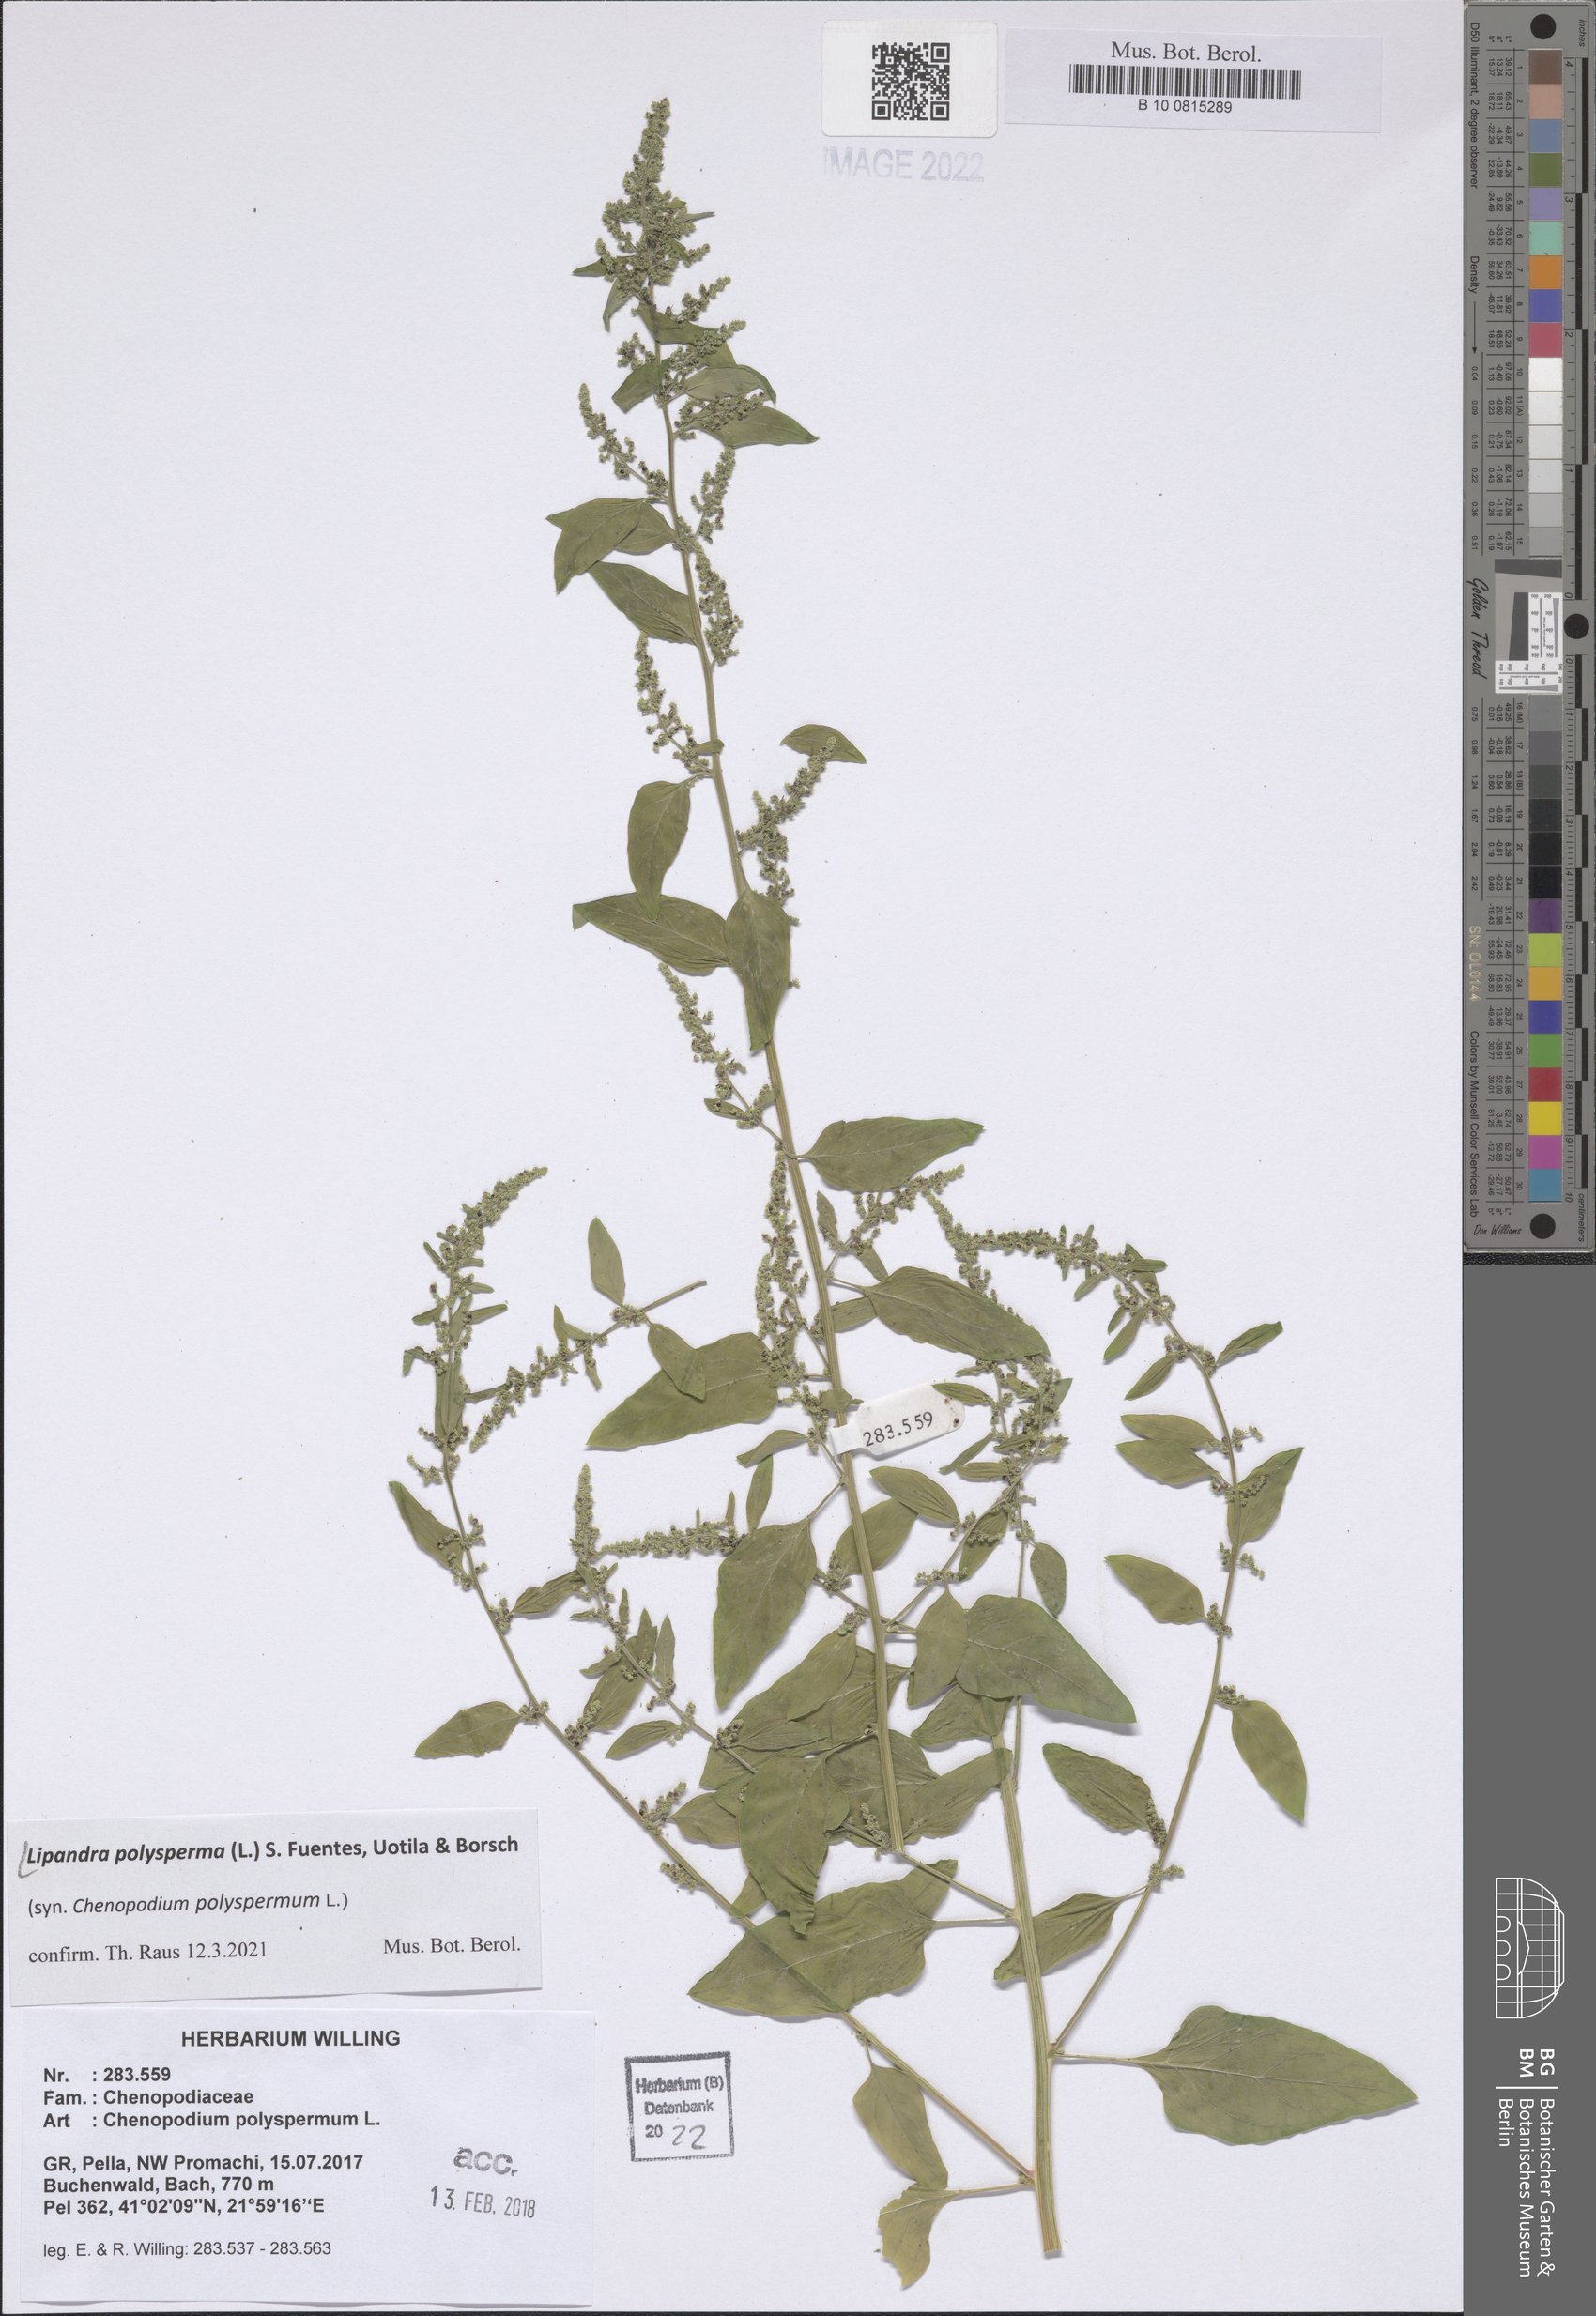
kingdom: Plantae
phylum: Tracheophyta
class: Magnoliopsida
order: Caryophyllales
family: Amaranthaceae
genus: Lipandra
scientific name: Lipandra polysperma
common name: Many-seed goosefoot
